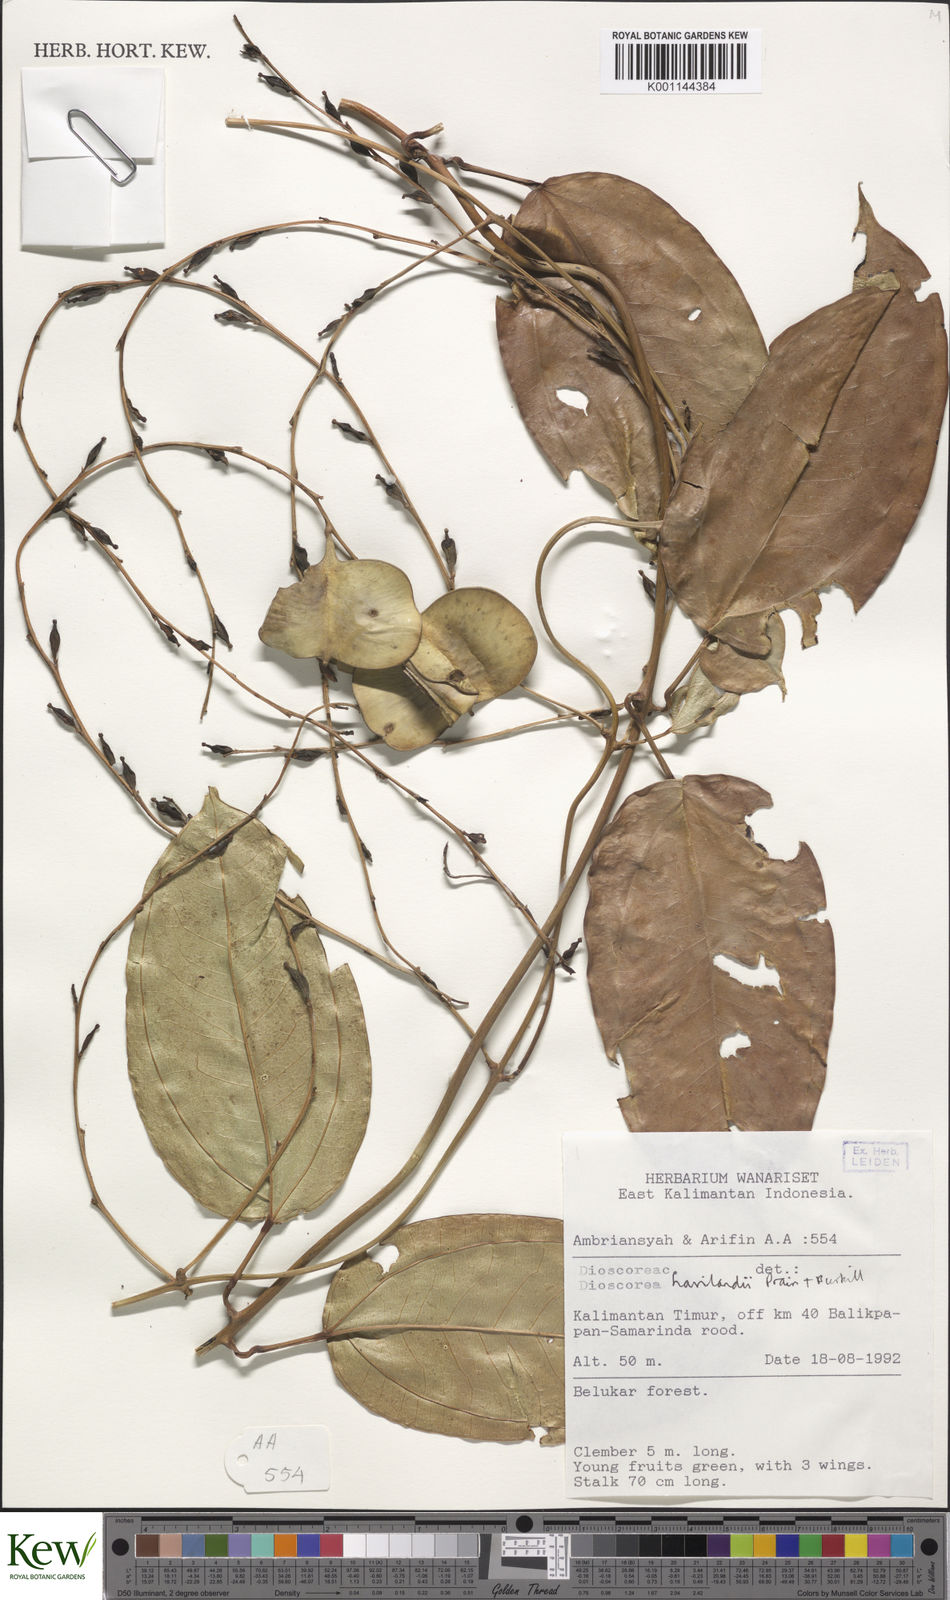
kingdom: Plantae
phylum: Tracheophyta
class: Liliopsida
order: Dioscoreales
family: Dioscoreaceae
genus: Dioscorea
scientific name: Dioscorea havilandii
